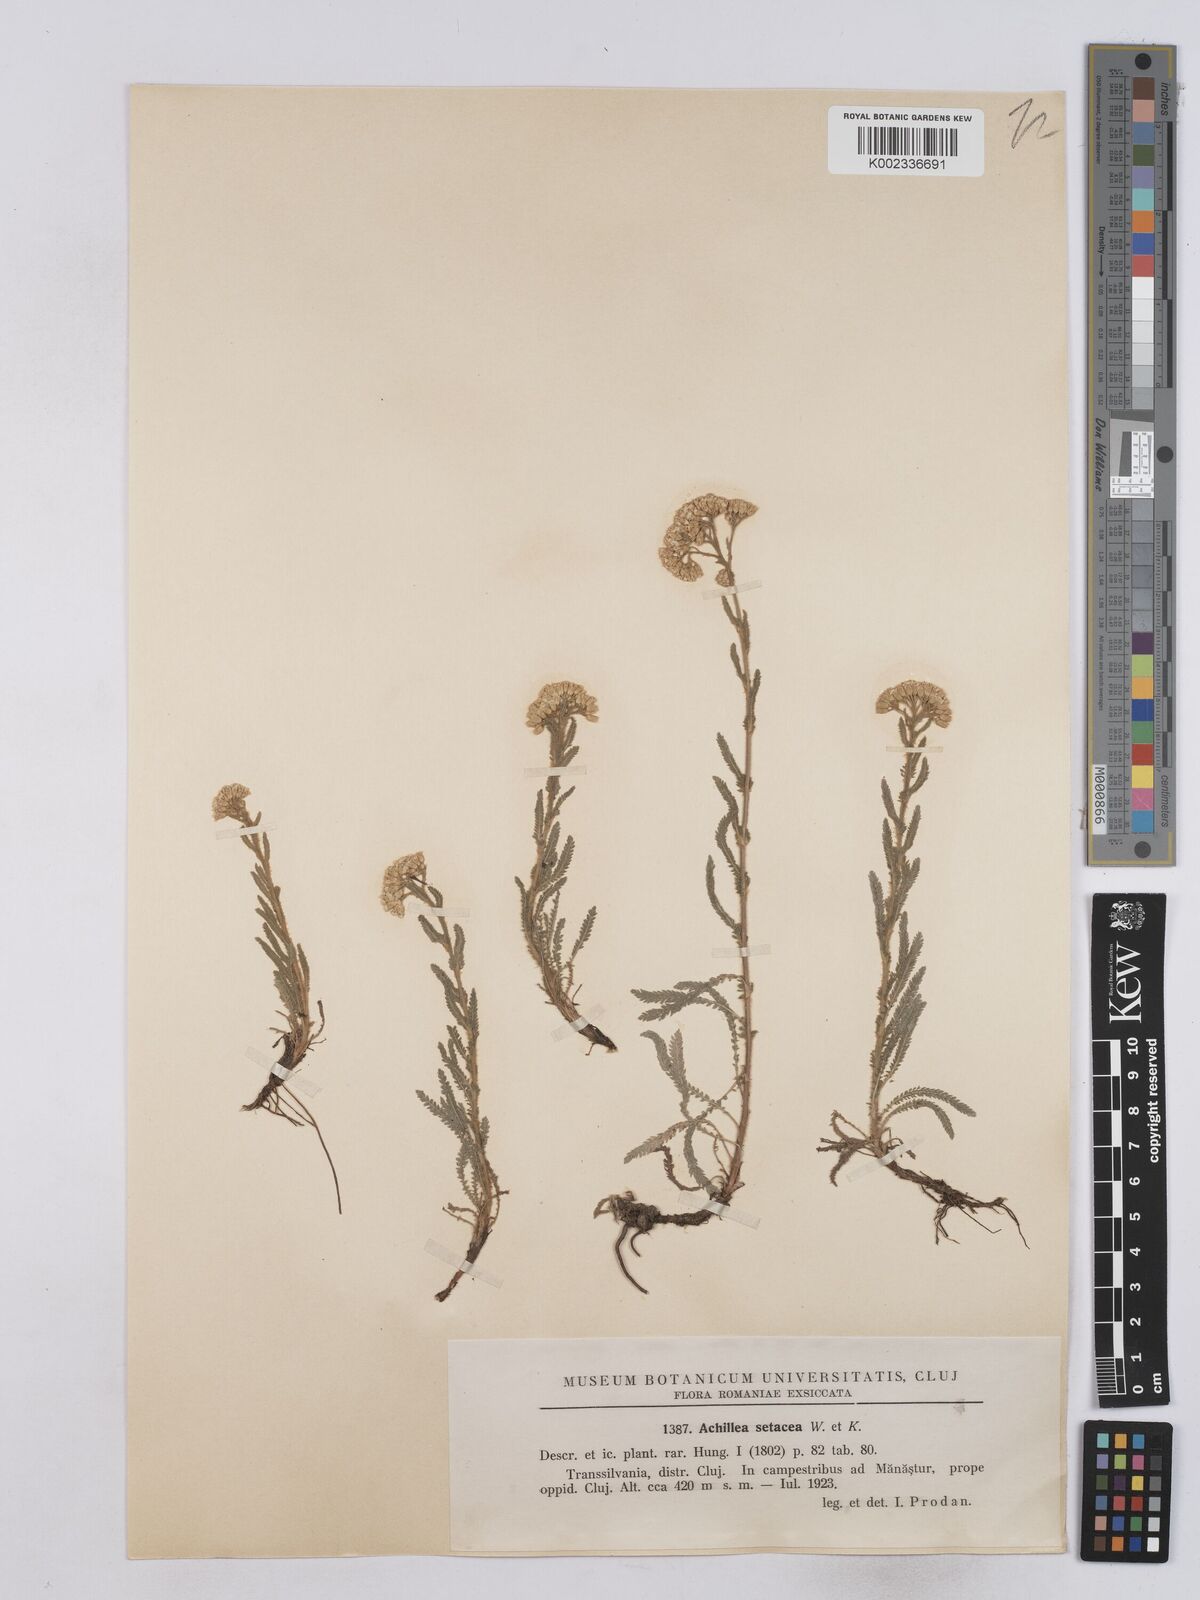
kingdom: Plantae
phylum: Tracheophyta
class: Magnoliopsida
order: Asterales
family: Asteraceae
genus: Achillea
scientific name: Achillea setacea
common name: Bristly yarrow
